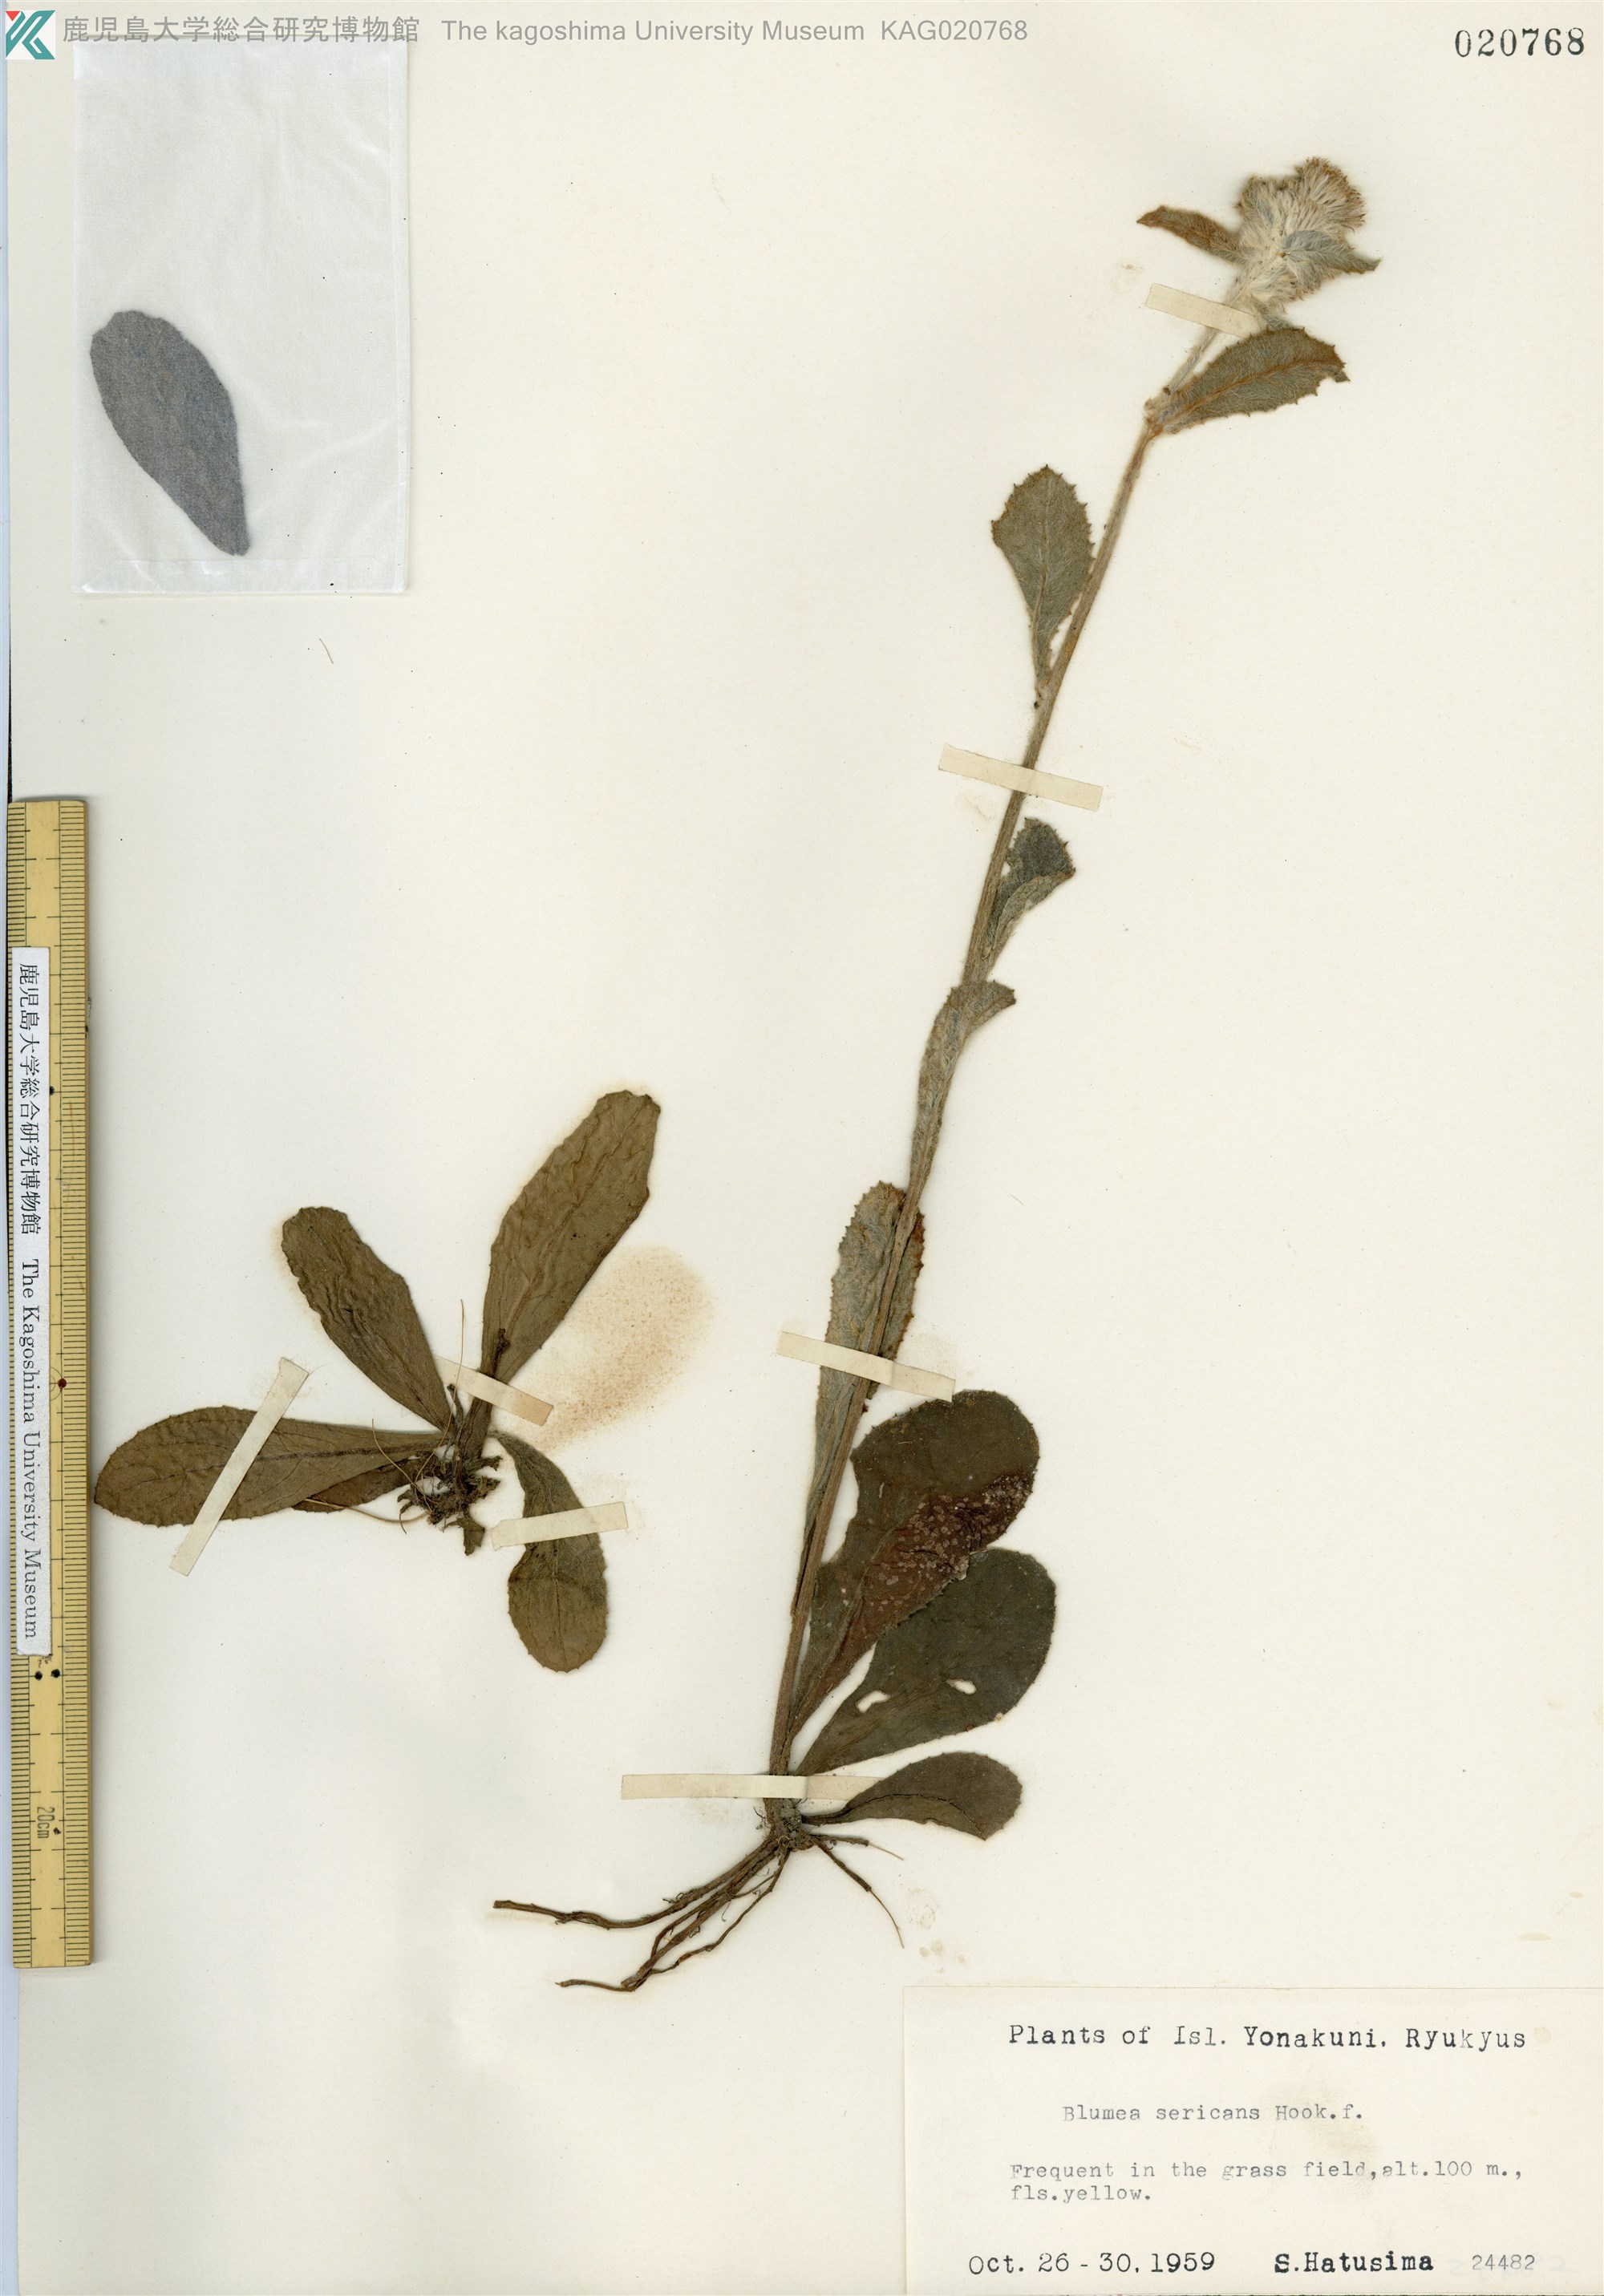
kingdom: Plantae
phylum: Tracheophyta
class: Magnoliopsida
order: Asterales
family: Asteraceae
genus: Blumea
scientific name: Blumea hieraciifolia
